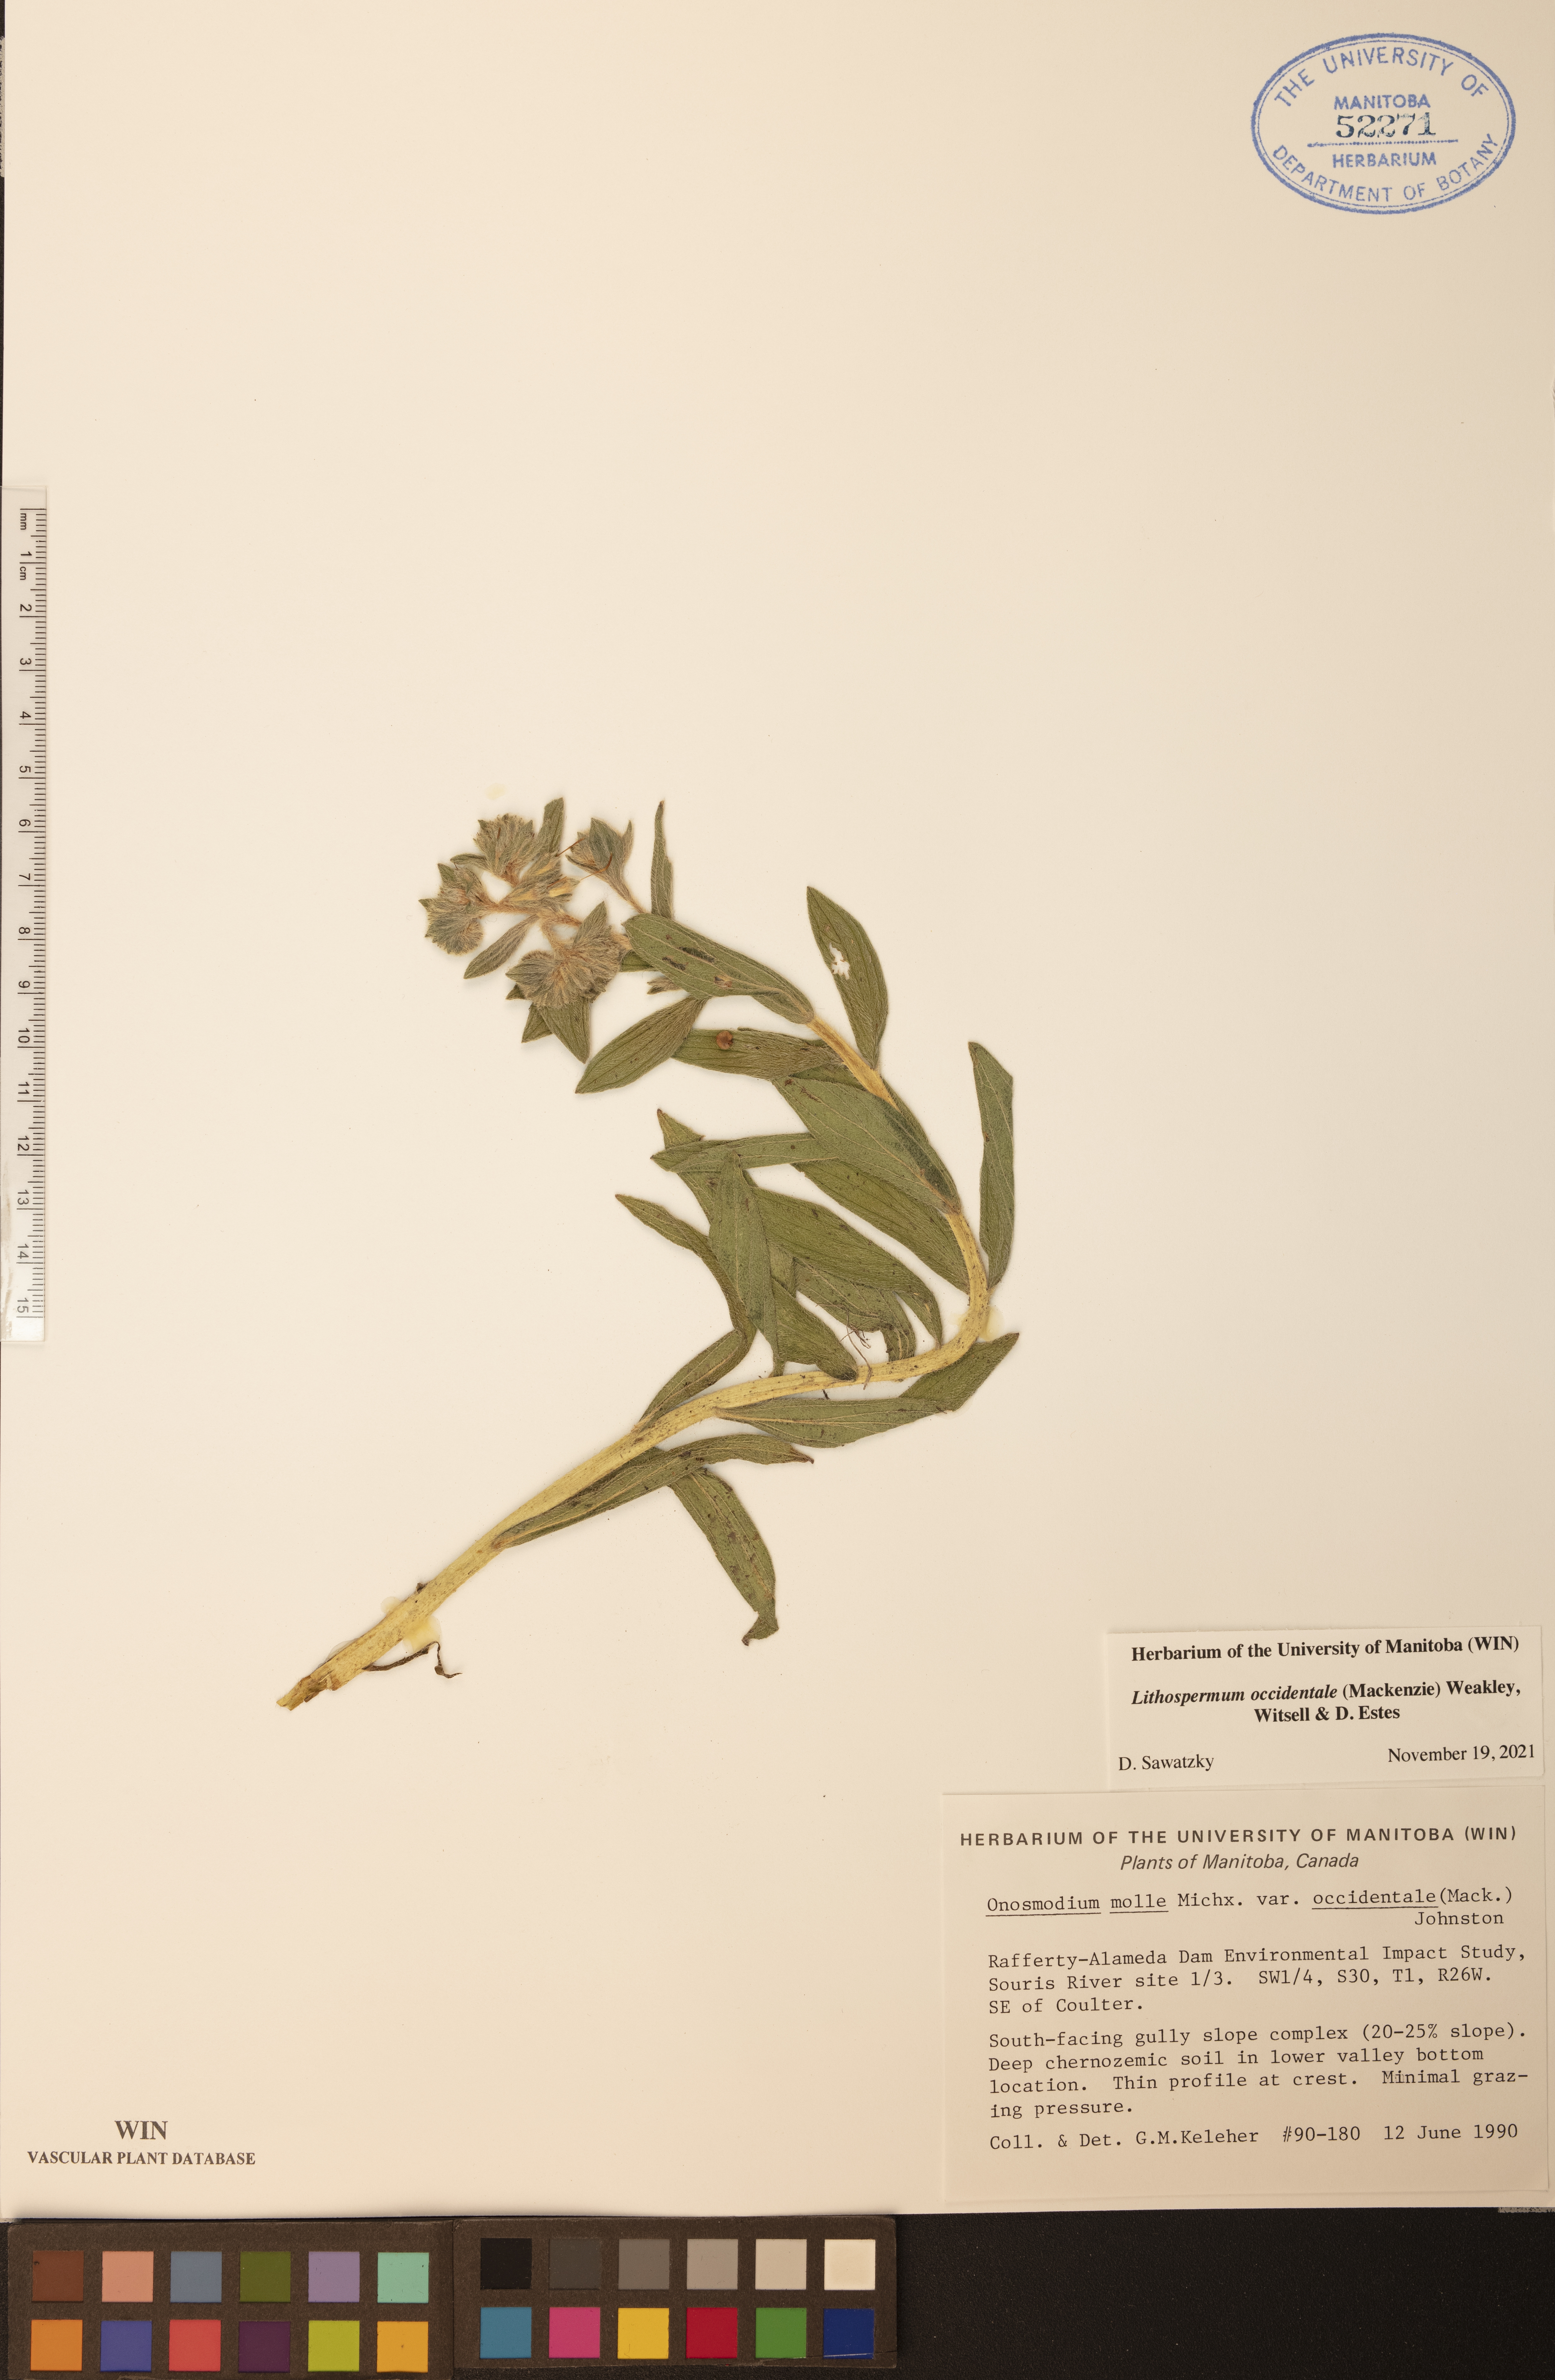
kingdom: Plantae
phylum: Tracheophyta
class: Magnoliopsida
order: Boraginales
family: Boraginaceae
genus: Lithospermum
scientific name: Lithospermum occidentale
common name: Western false gromwell
